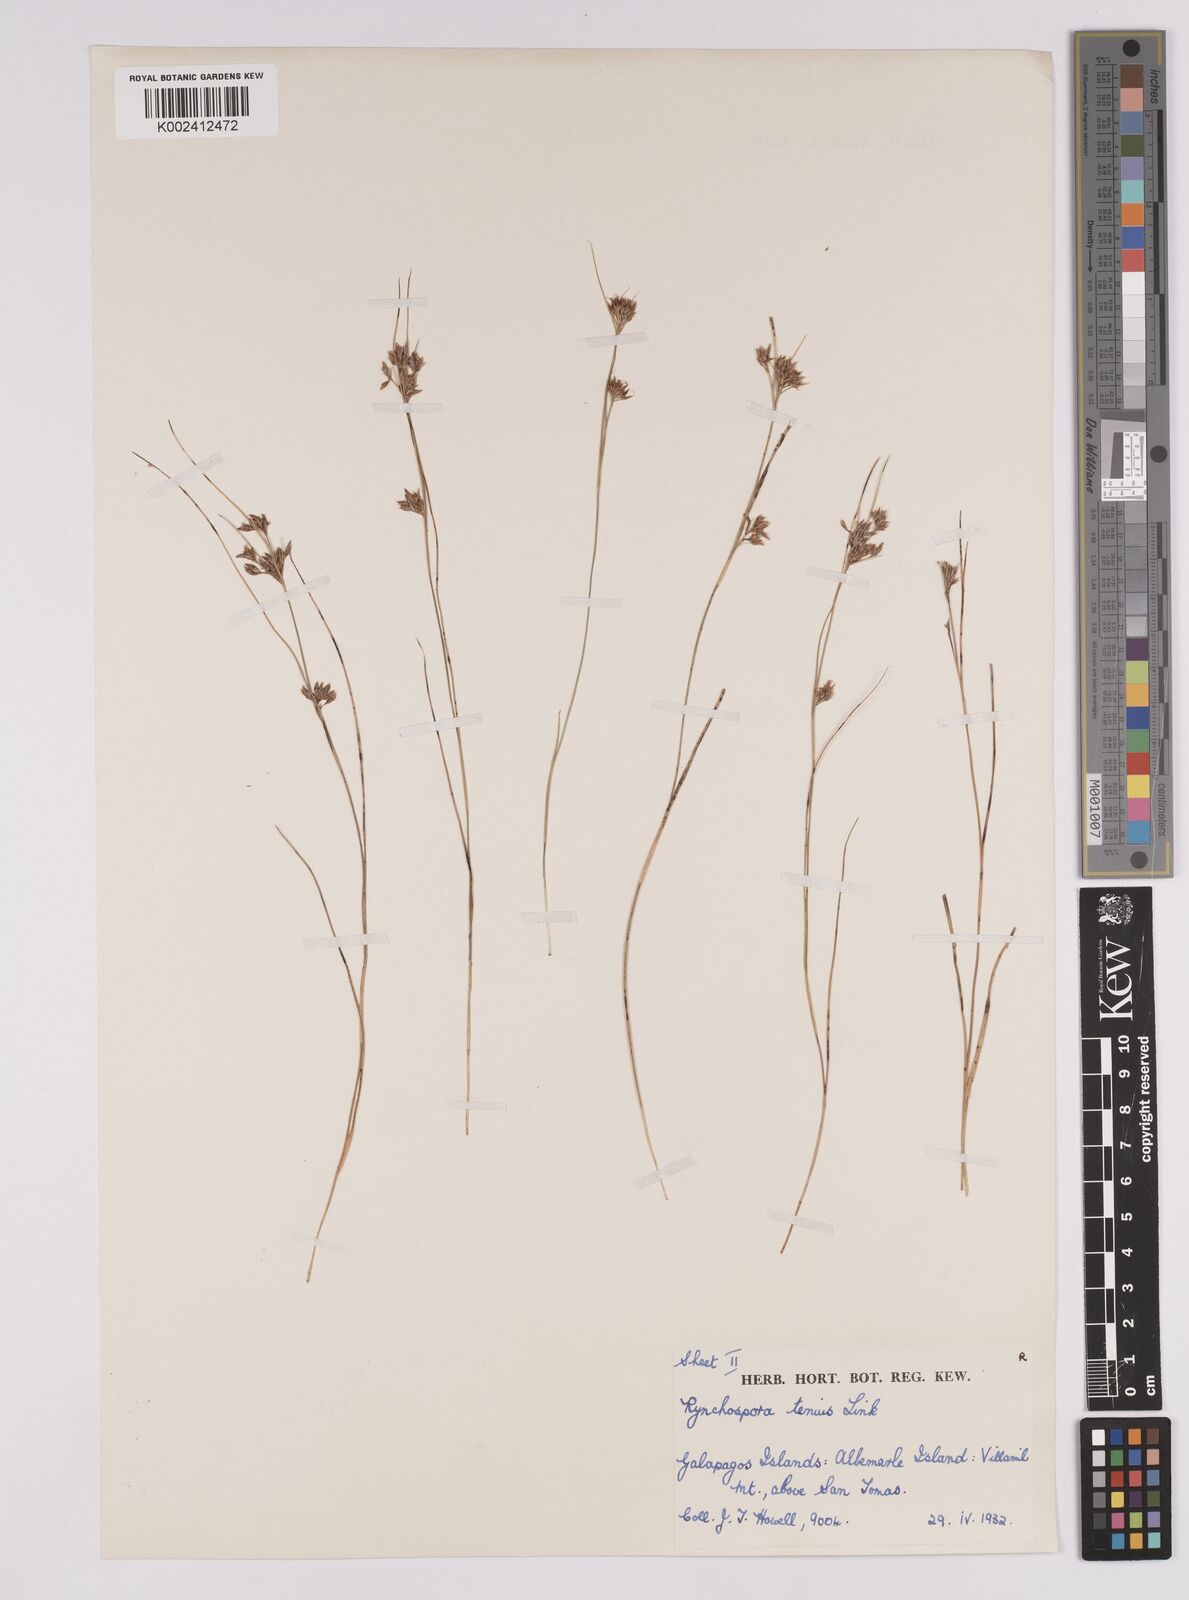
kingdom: Plantae
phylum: Tracheophyta
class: Liliopsida
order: Poales
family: Cyperaceae
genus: Rhynchospora
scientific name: Rhynchospora tenuis
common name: Quill beaksedge
